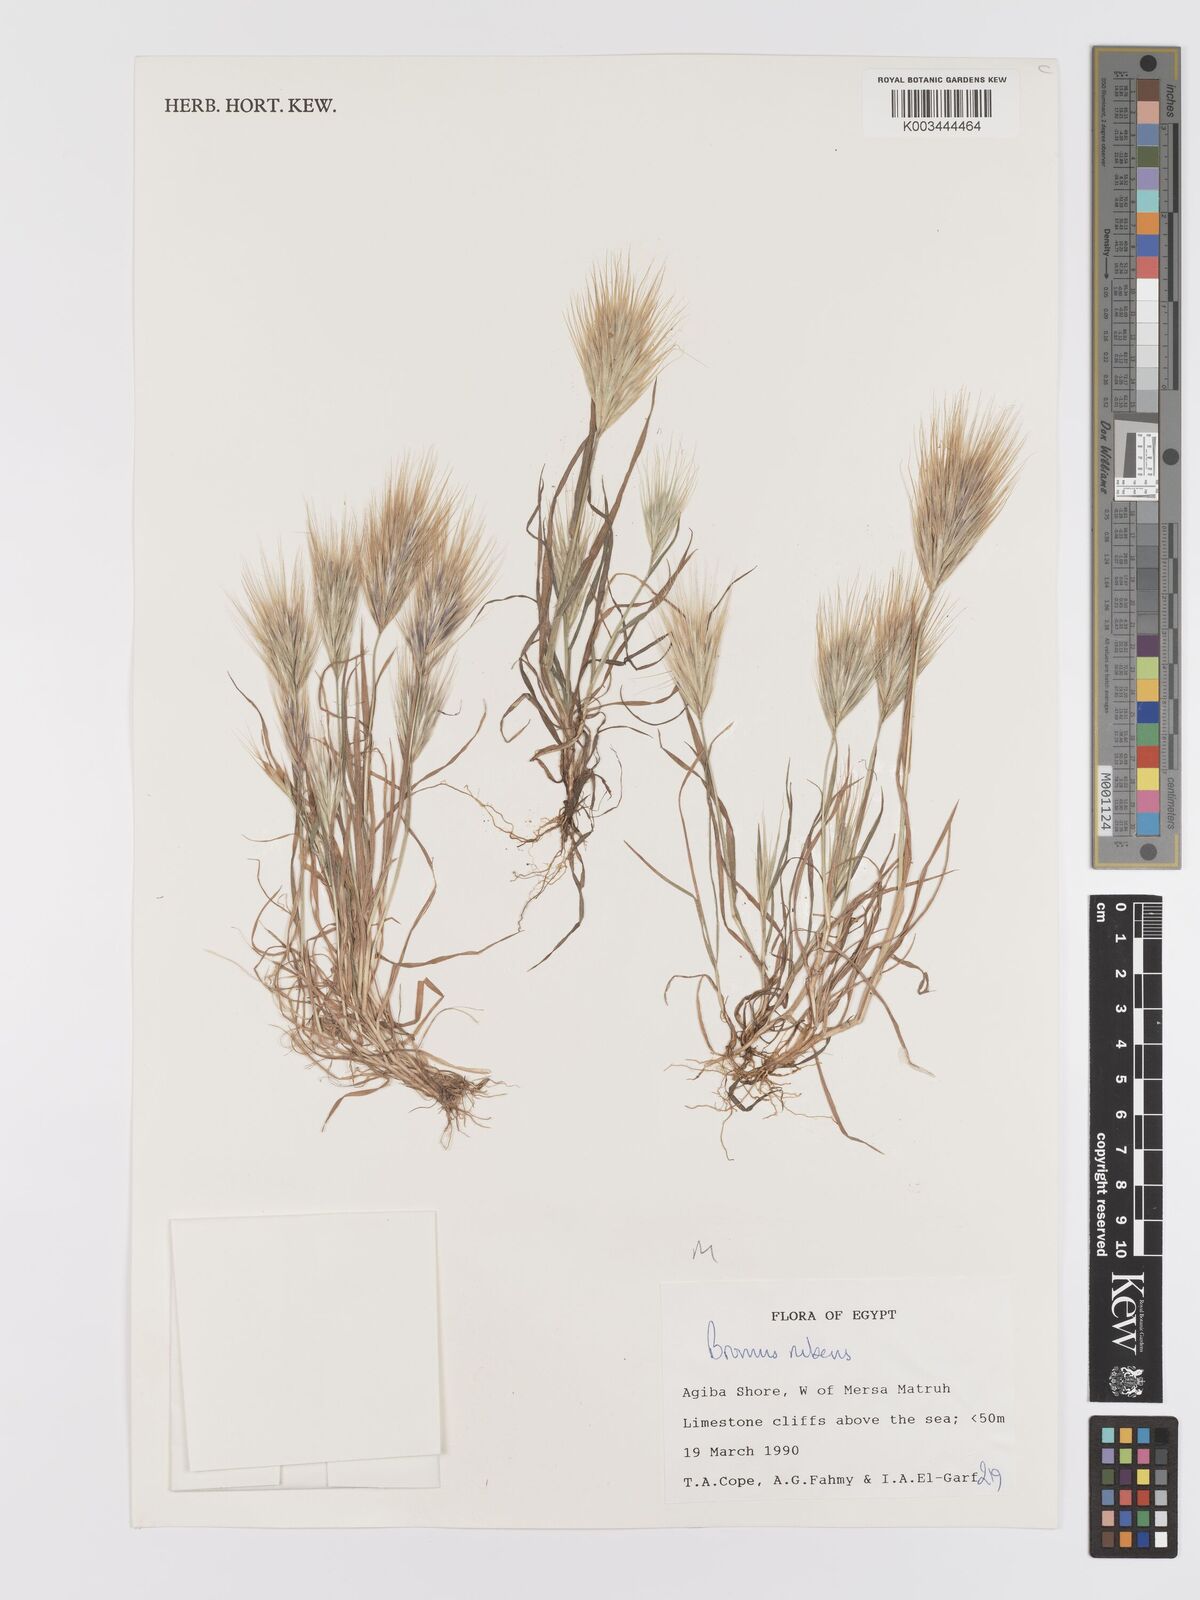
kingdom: Plantae
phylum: Tracheophyta
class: Liliopsida
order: Poales
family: Poaceae
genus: Bromus
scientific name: Bromus rubens
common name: Red brome
